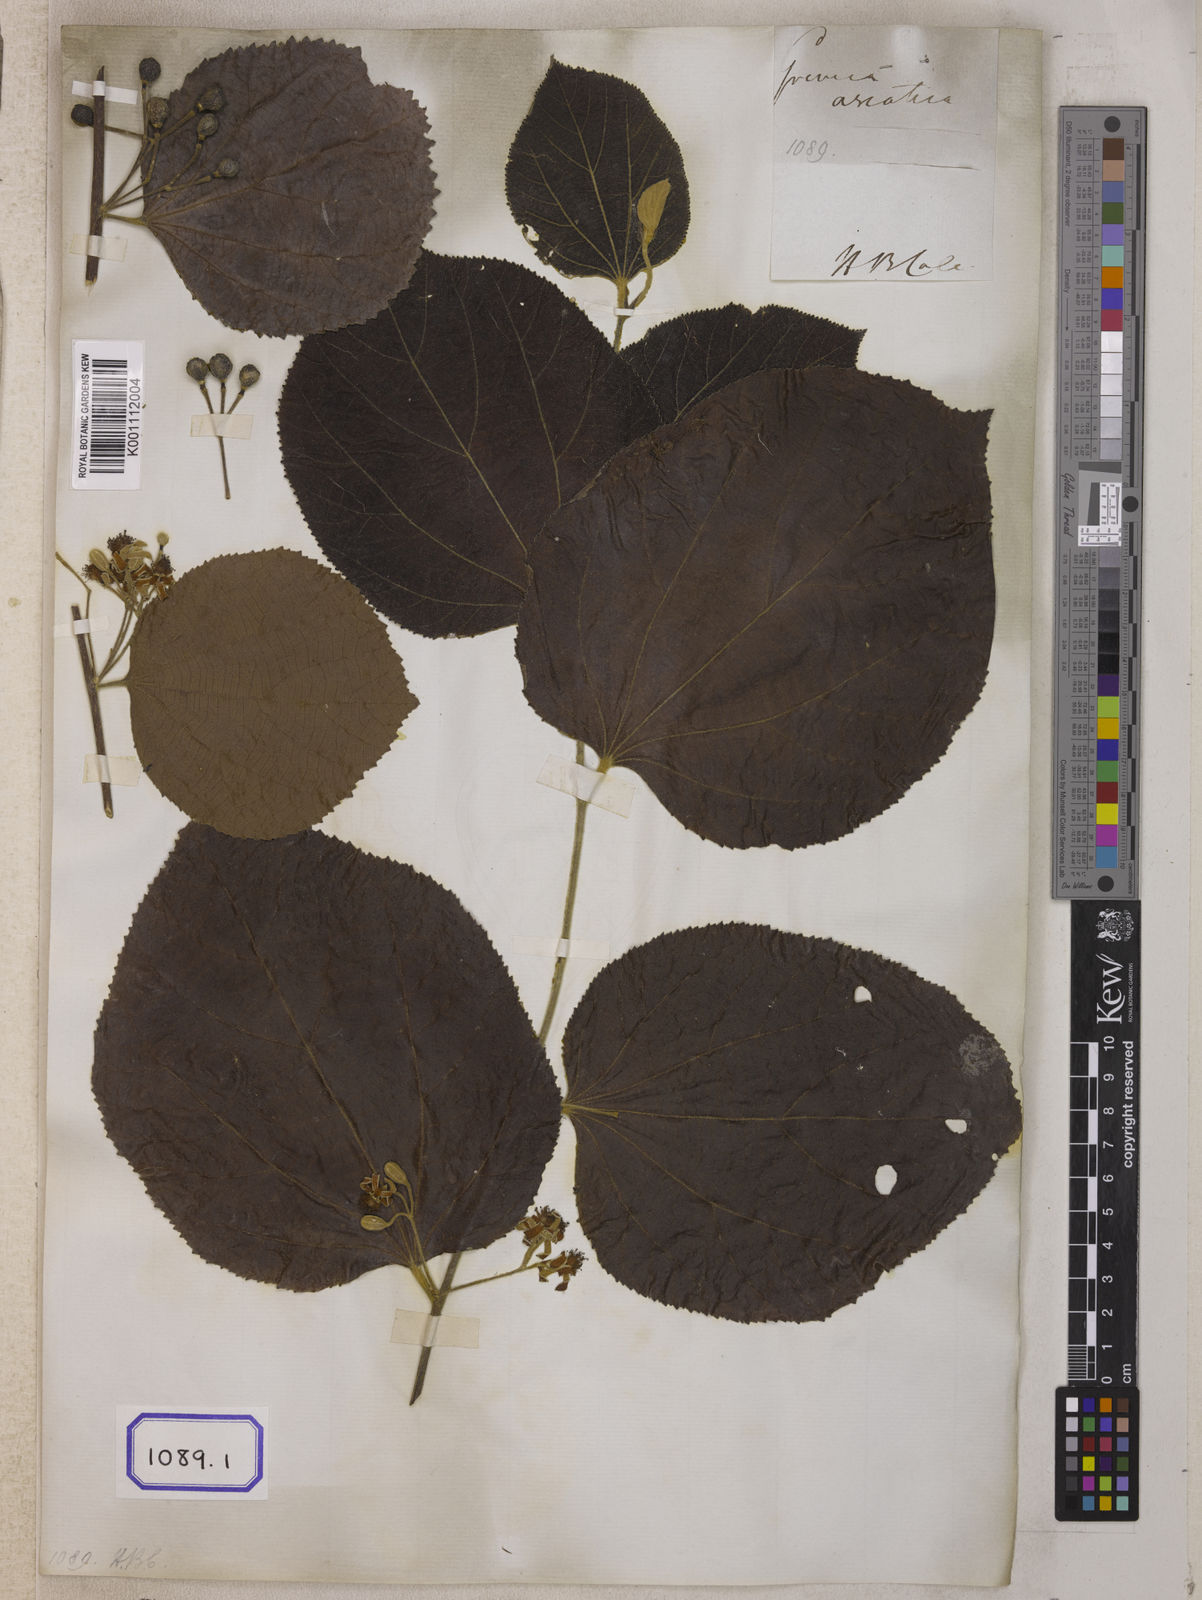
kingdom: Plantae
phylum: Tracheophyta
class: Magnoliopsida
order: Malvales
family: Malvaceae
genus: Grewia
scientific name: Grewia asiatica
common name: Phalsa
